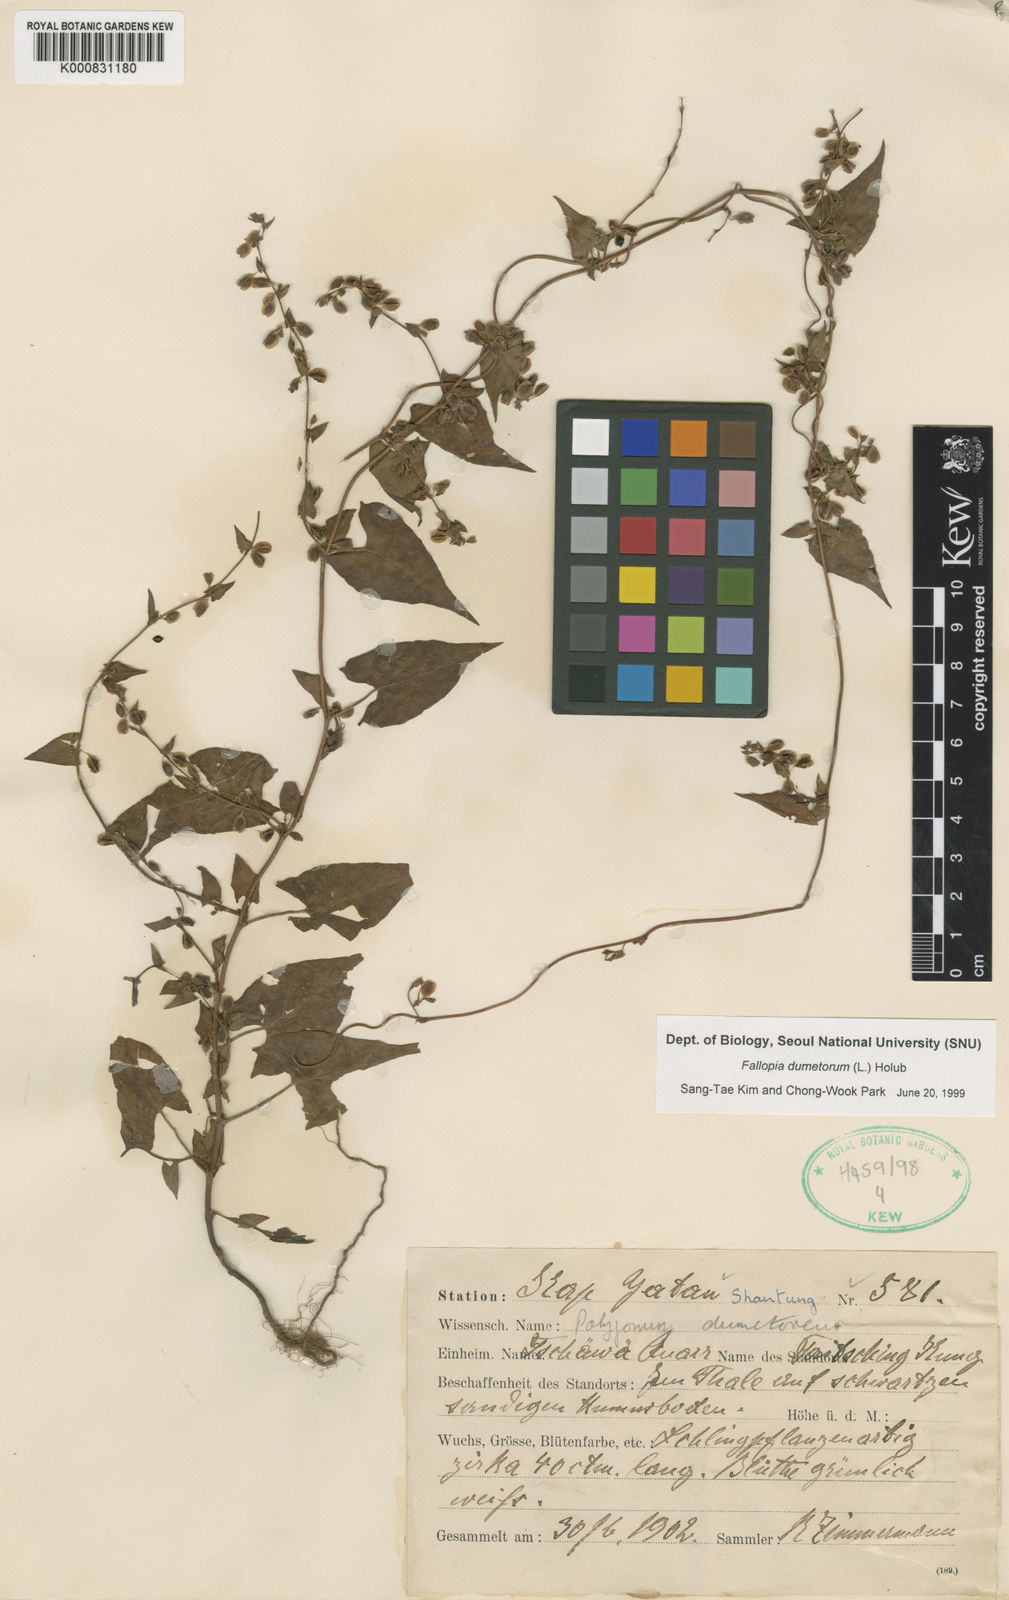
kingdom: Plantae
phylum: Tracheophyta
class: Magnoliopsida
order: Caryophyllales
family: Polygonaceae
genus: Fallopia
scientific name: Fallopia dumetorum
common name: Copse-bindweed
